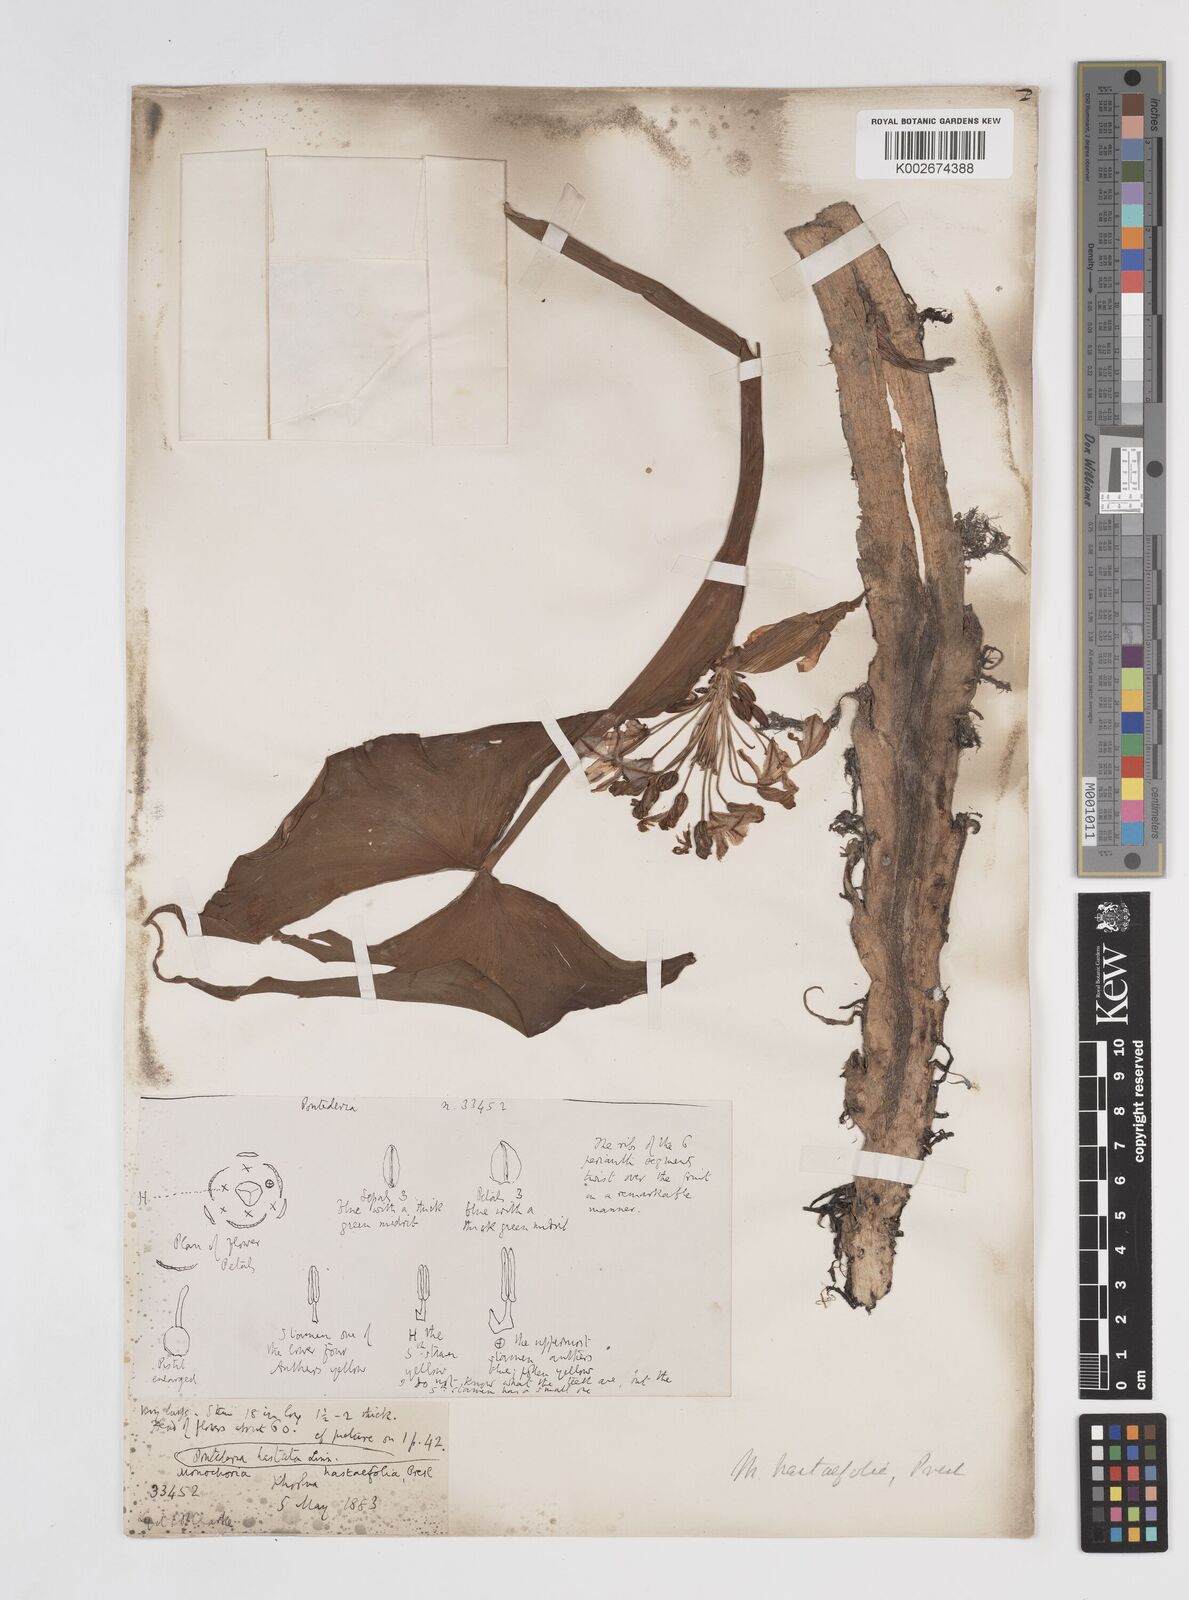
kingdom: Plantae
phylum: Tracheophyta
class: Liliopsida
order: Commelinales
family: Pontederiaceae
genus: Pontederia
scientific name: Pontederia hastata
